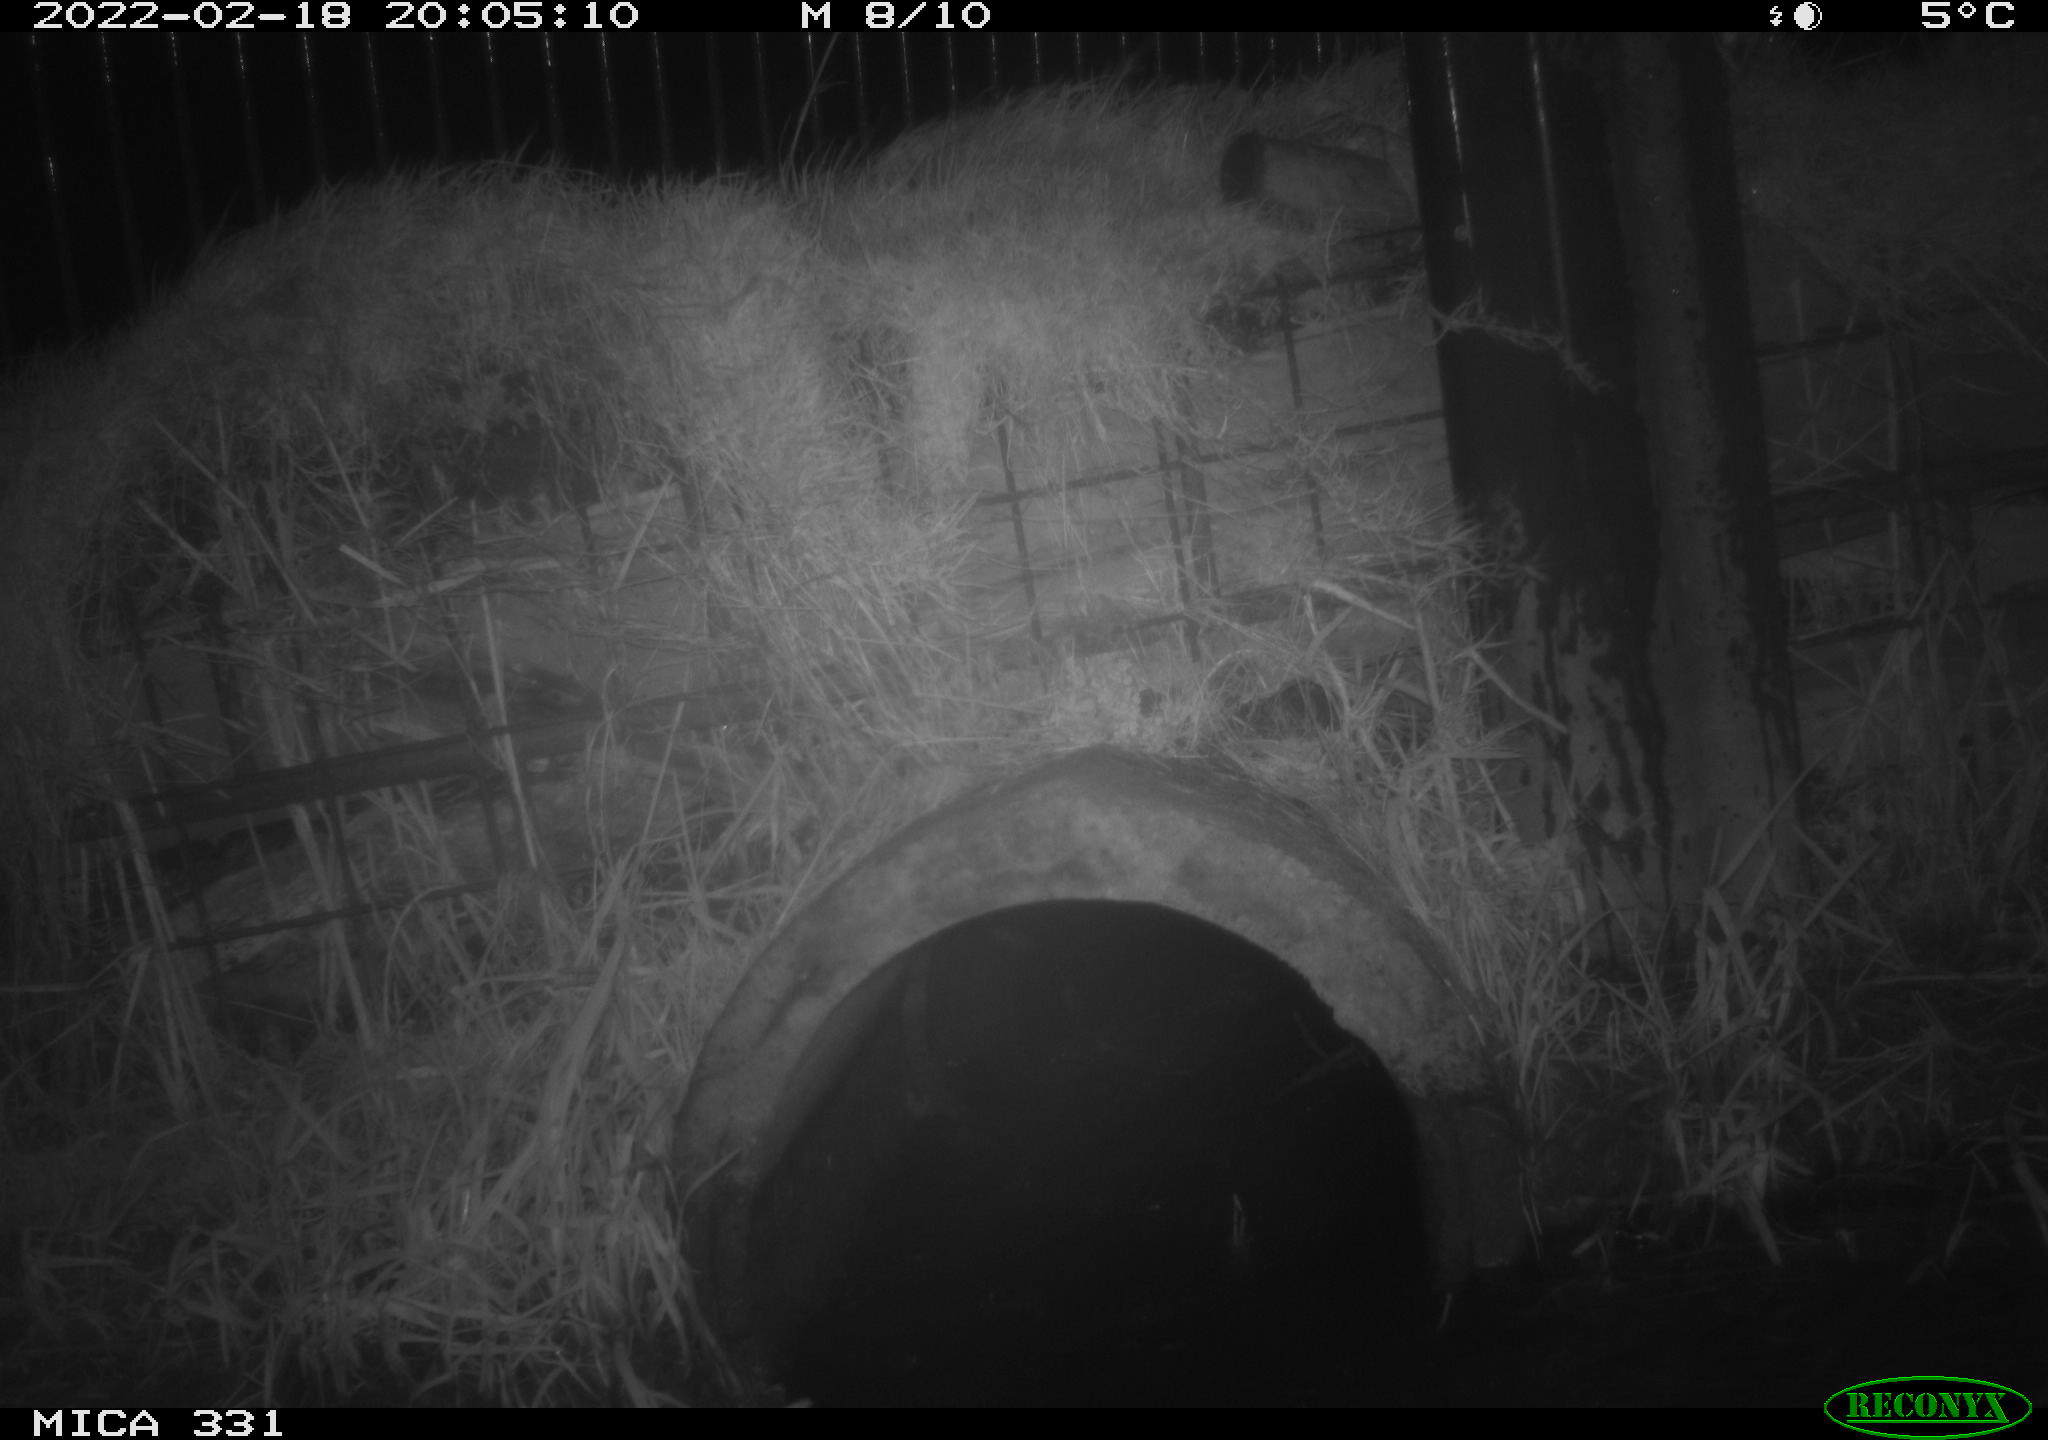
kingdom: Animalia
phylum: Chordata
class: Mammalia
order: Rodentia
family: Muridae
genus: Rattus
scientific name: Rattus norvegicus
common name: Brown rat
